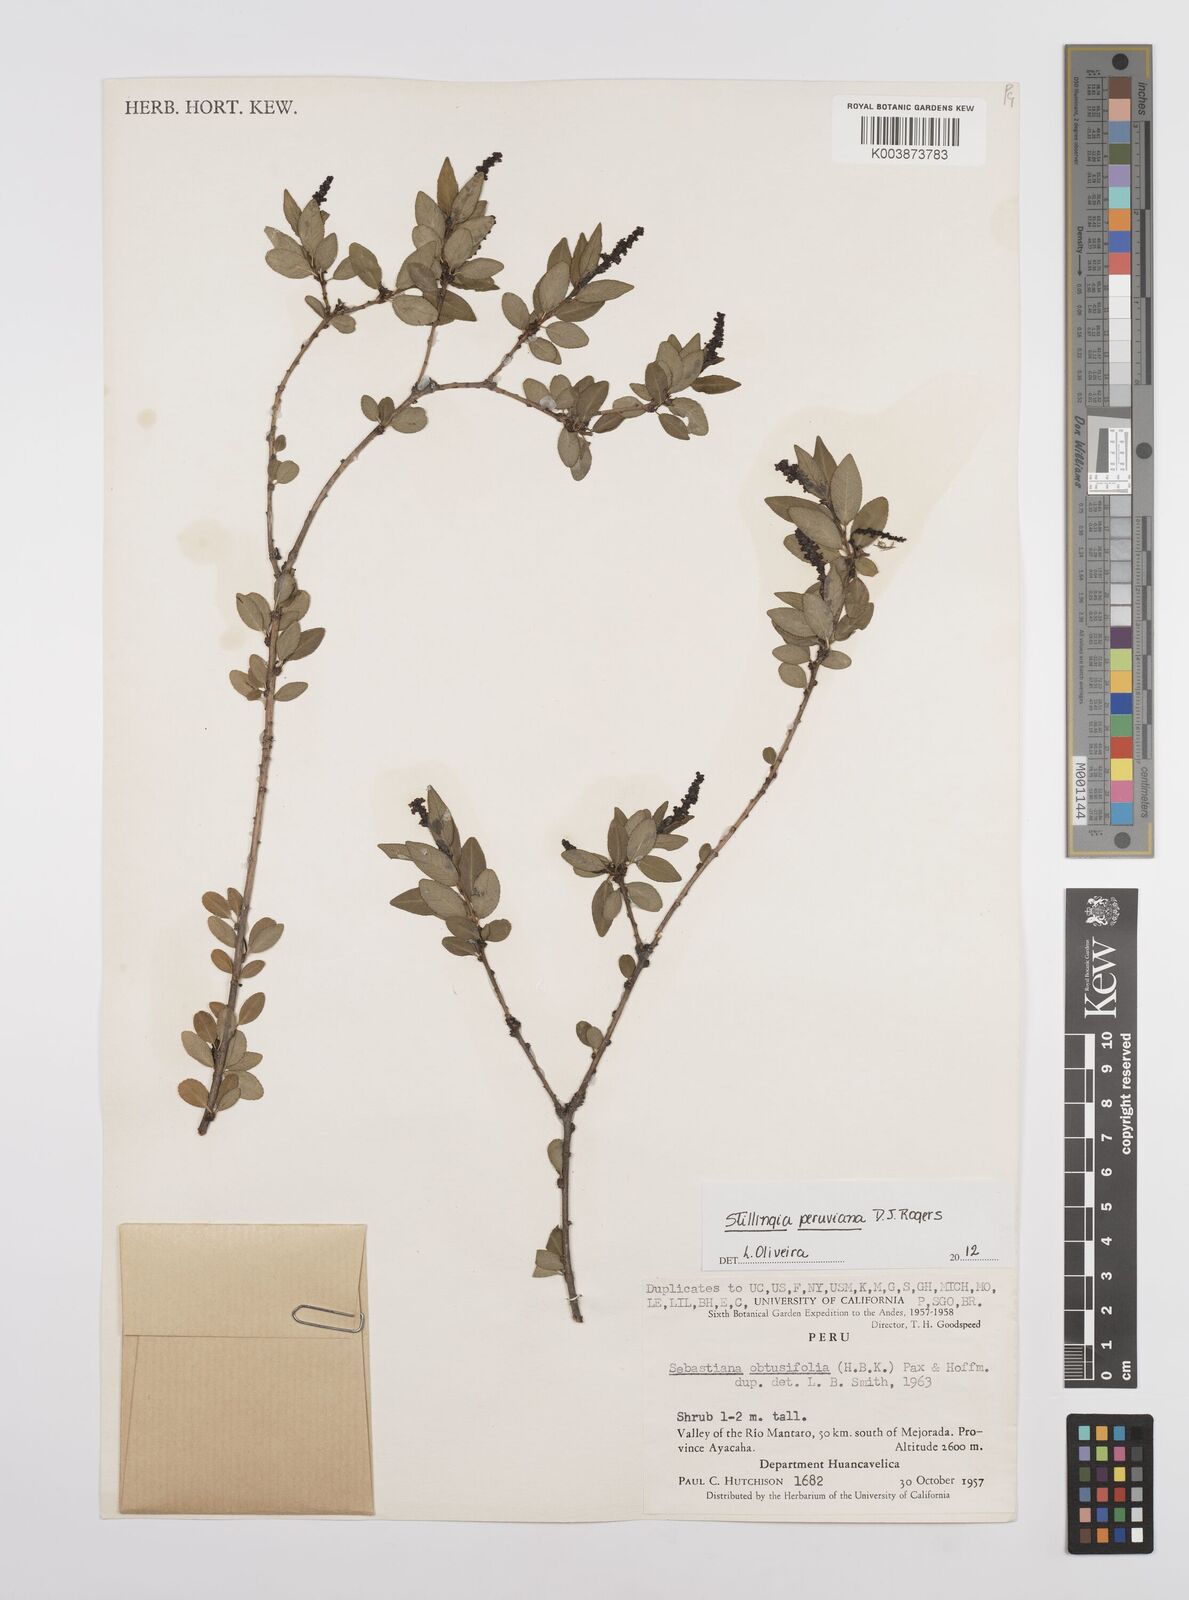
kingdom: Plantae
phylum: Tracheophyta
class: Magnoliopsida
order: Malpighiales
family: Euphorbiaceae
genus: Stillingia
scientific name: Stillingia peruviana
